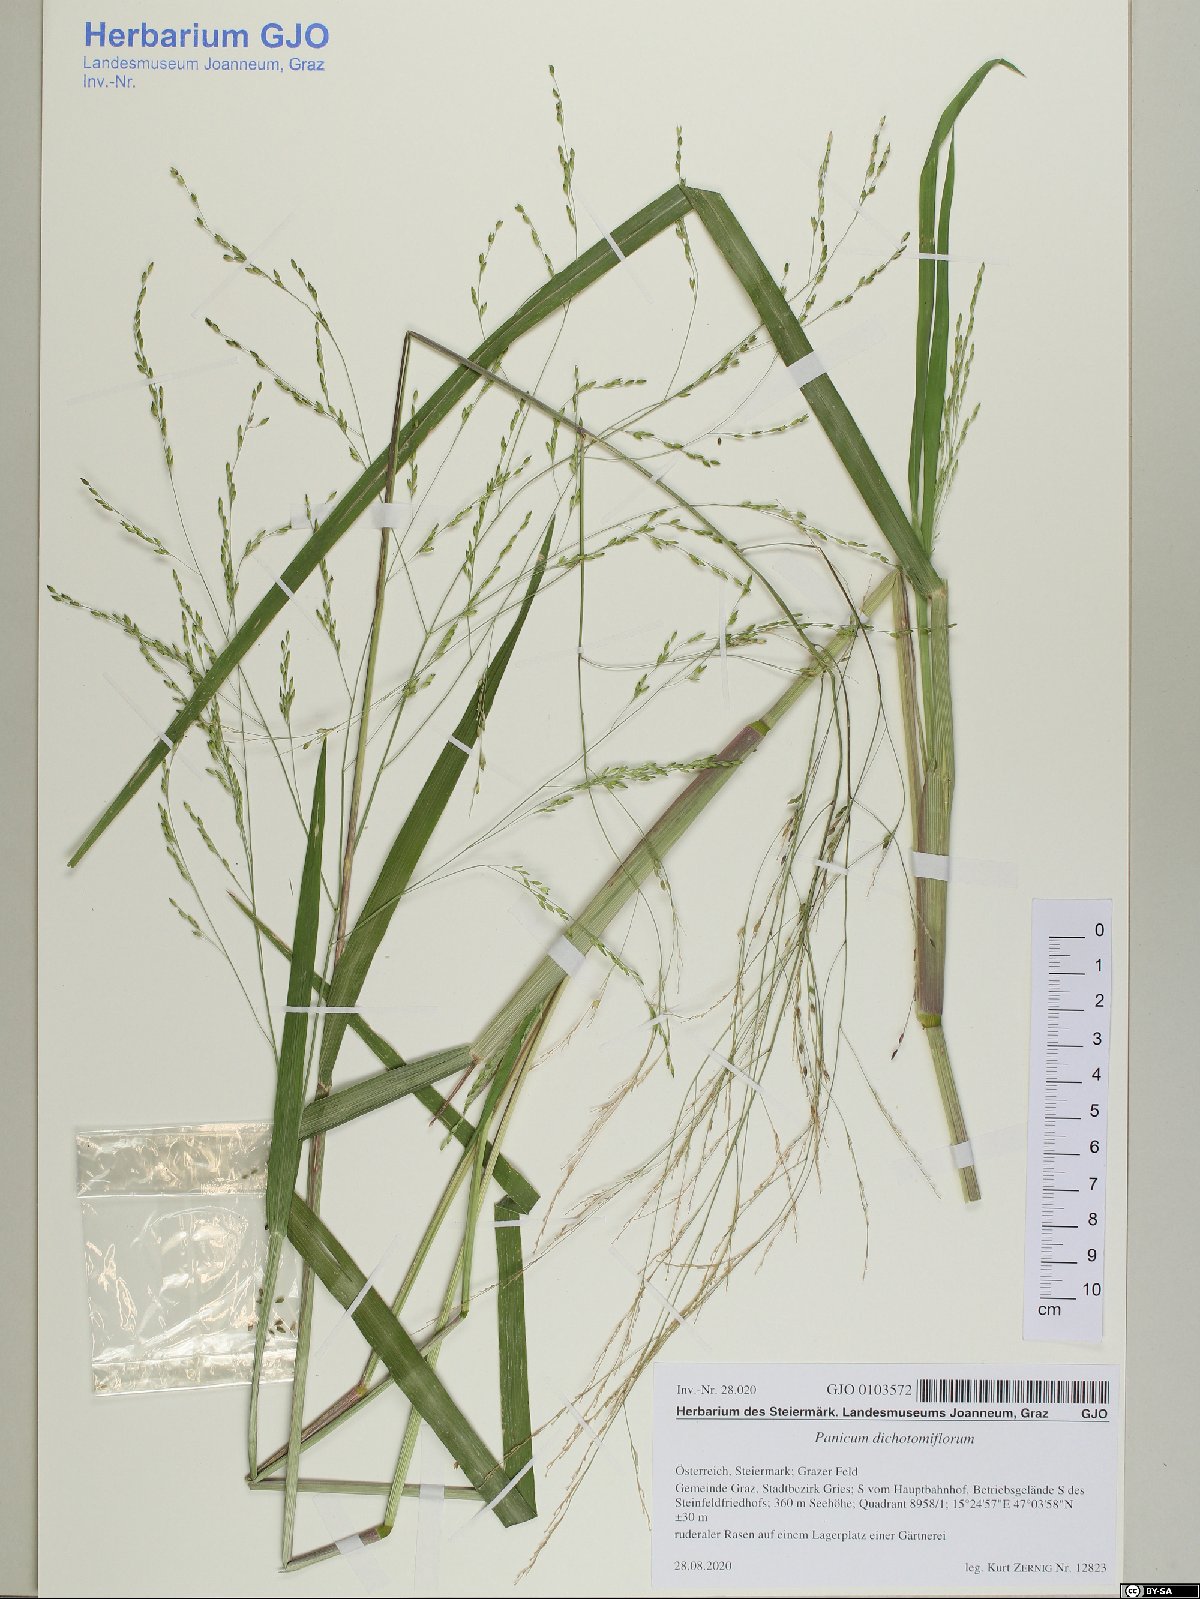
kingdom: Plantae
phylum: Tracheophyta
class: Liliopsida
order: Poales
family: Poaceae
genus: Panicum
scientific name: Panicum dichotomiflorum
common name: Autumn millet
